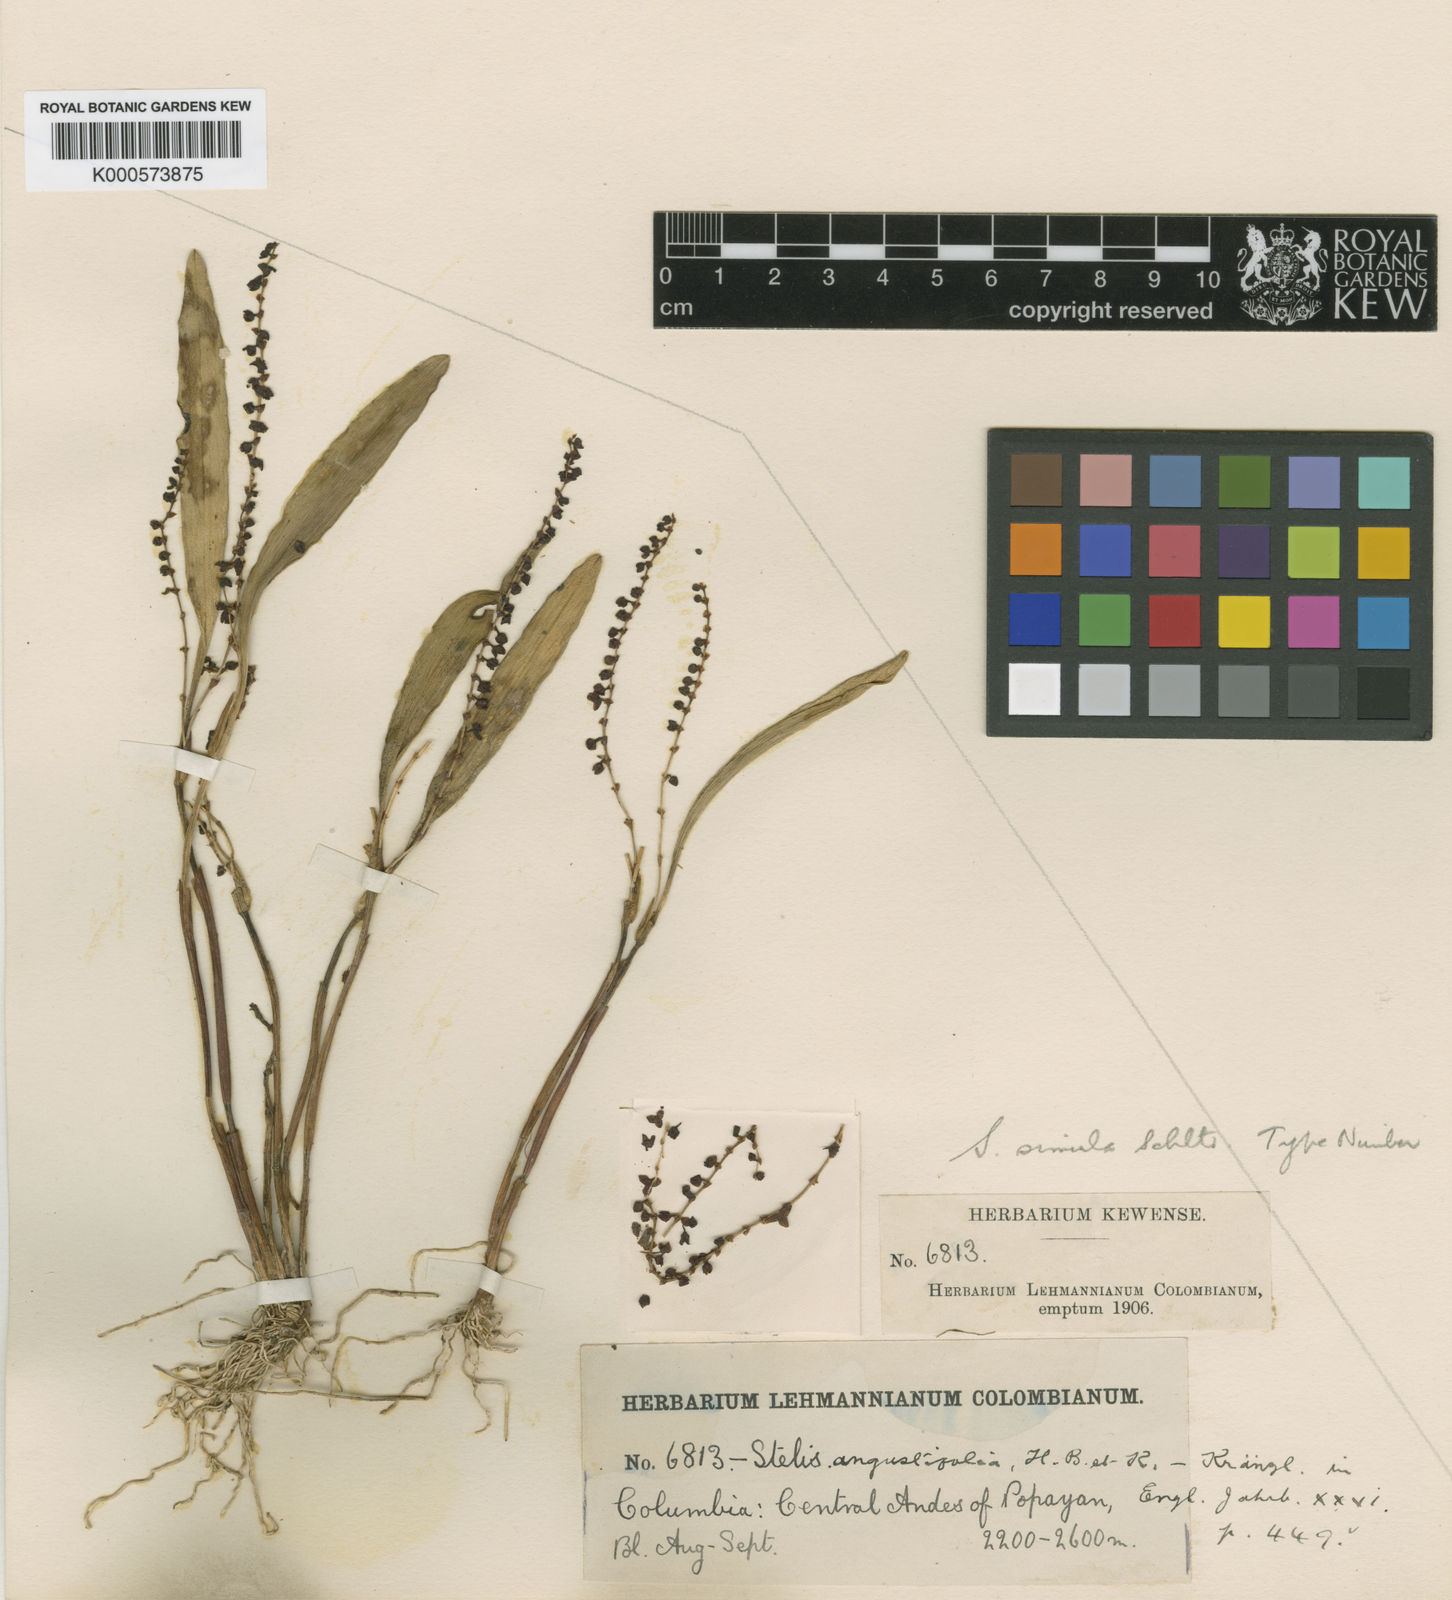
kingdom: Plantae
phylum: Tracheophyta
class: Liliopsida
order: Asparagales
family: Orchidaceae
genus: Stelis
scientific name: Stelis crassilabia
